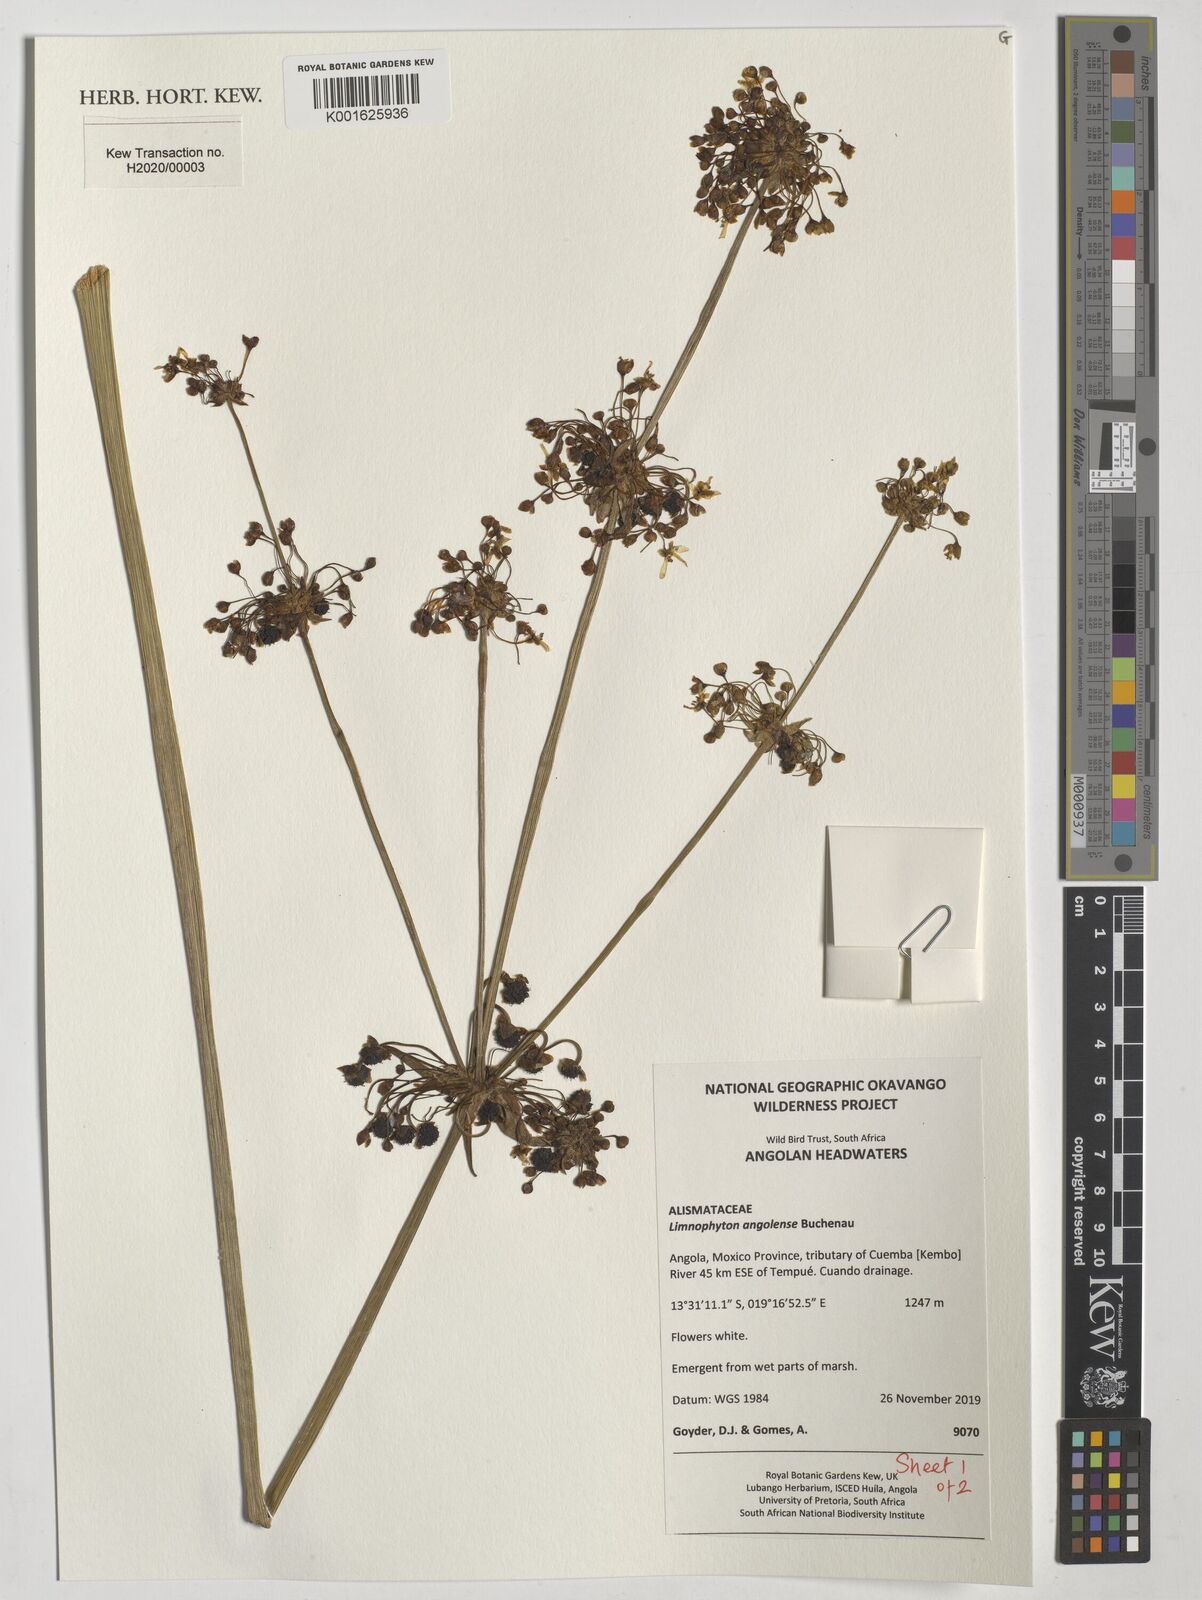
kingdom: Plantae
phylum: Tracheophyta
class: Liliopsida
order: Alismatales
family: Alismataceae
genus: Limnophyton
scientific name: Limnophyton angolense
